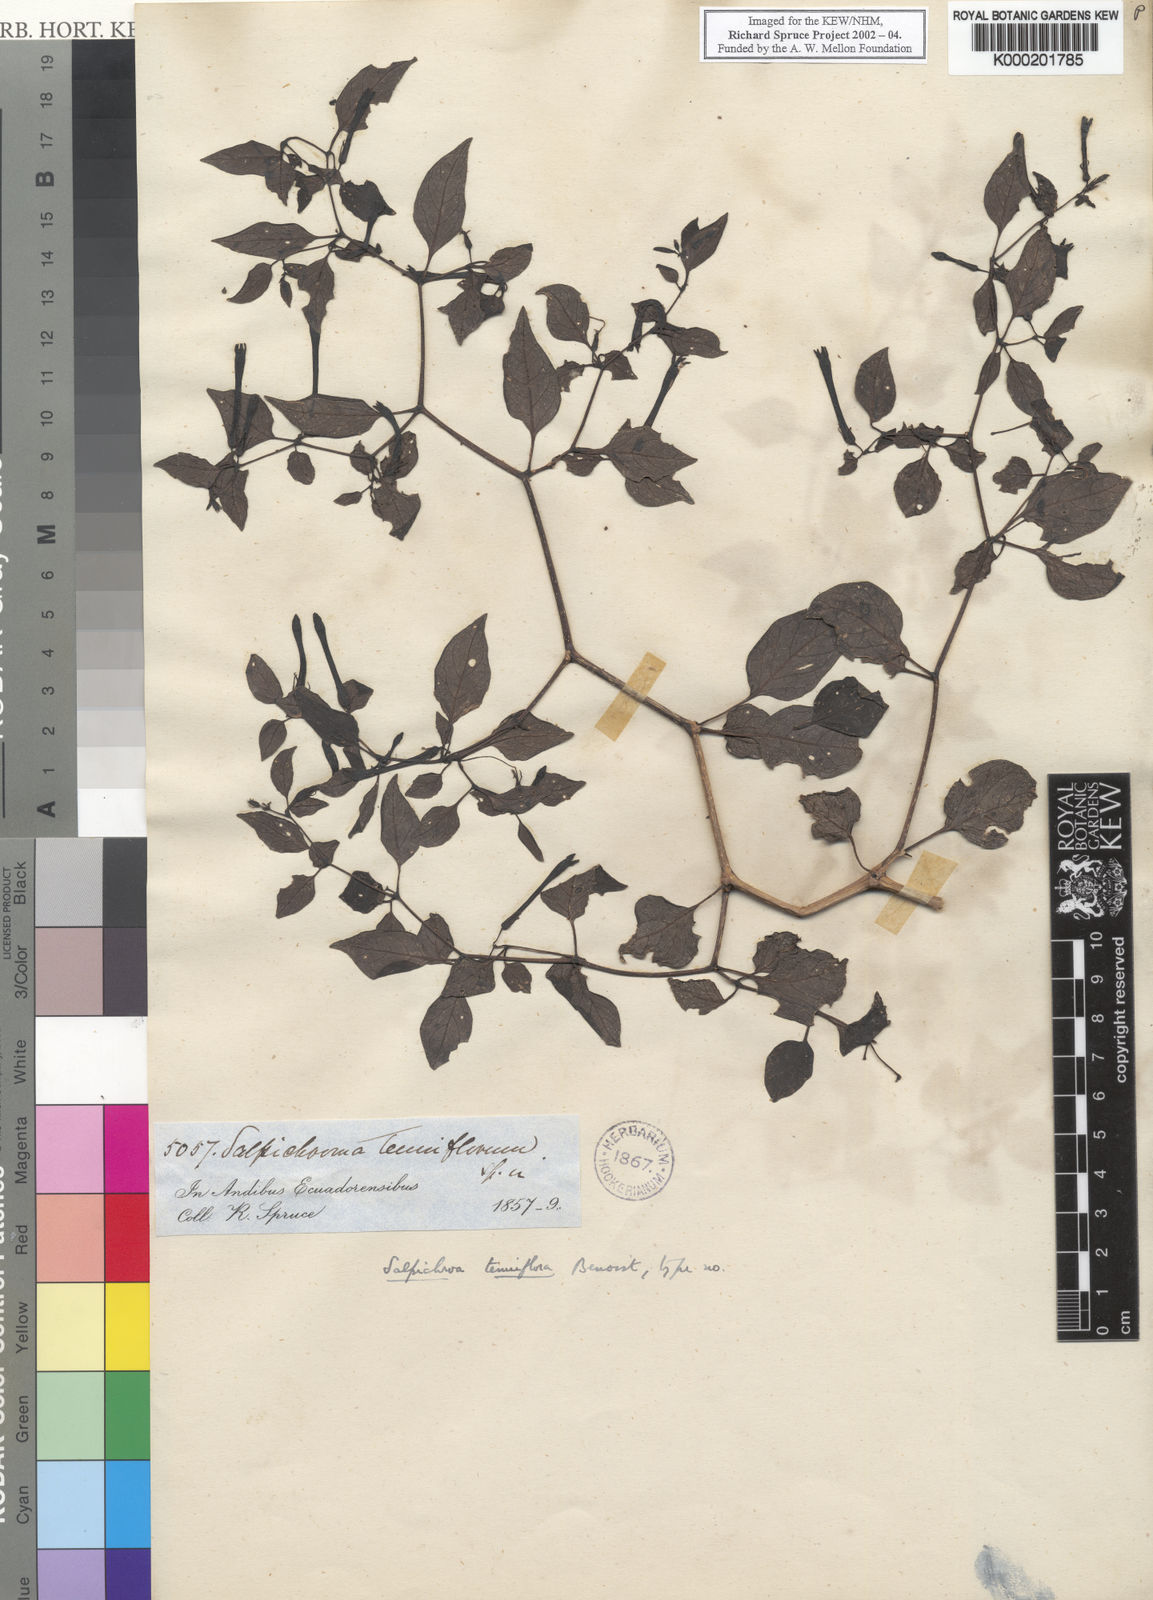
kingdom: Plantae
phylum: Tracheophyta
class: Magnoliopsida
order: Solanales
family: Solanaceae
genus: Salpichroa
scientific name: Salpichroa weberbaueri
